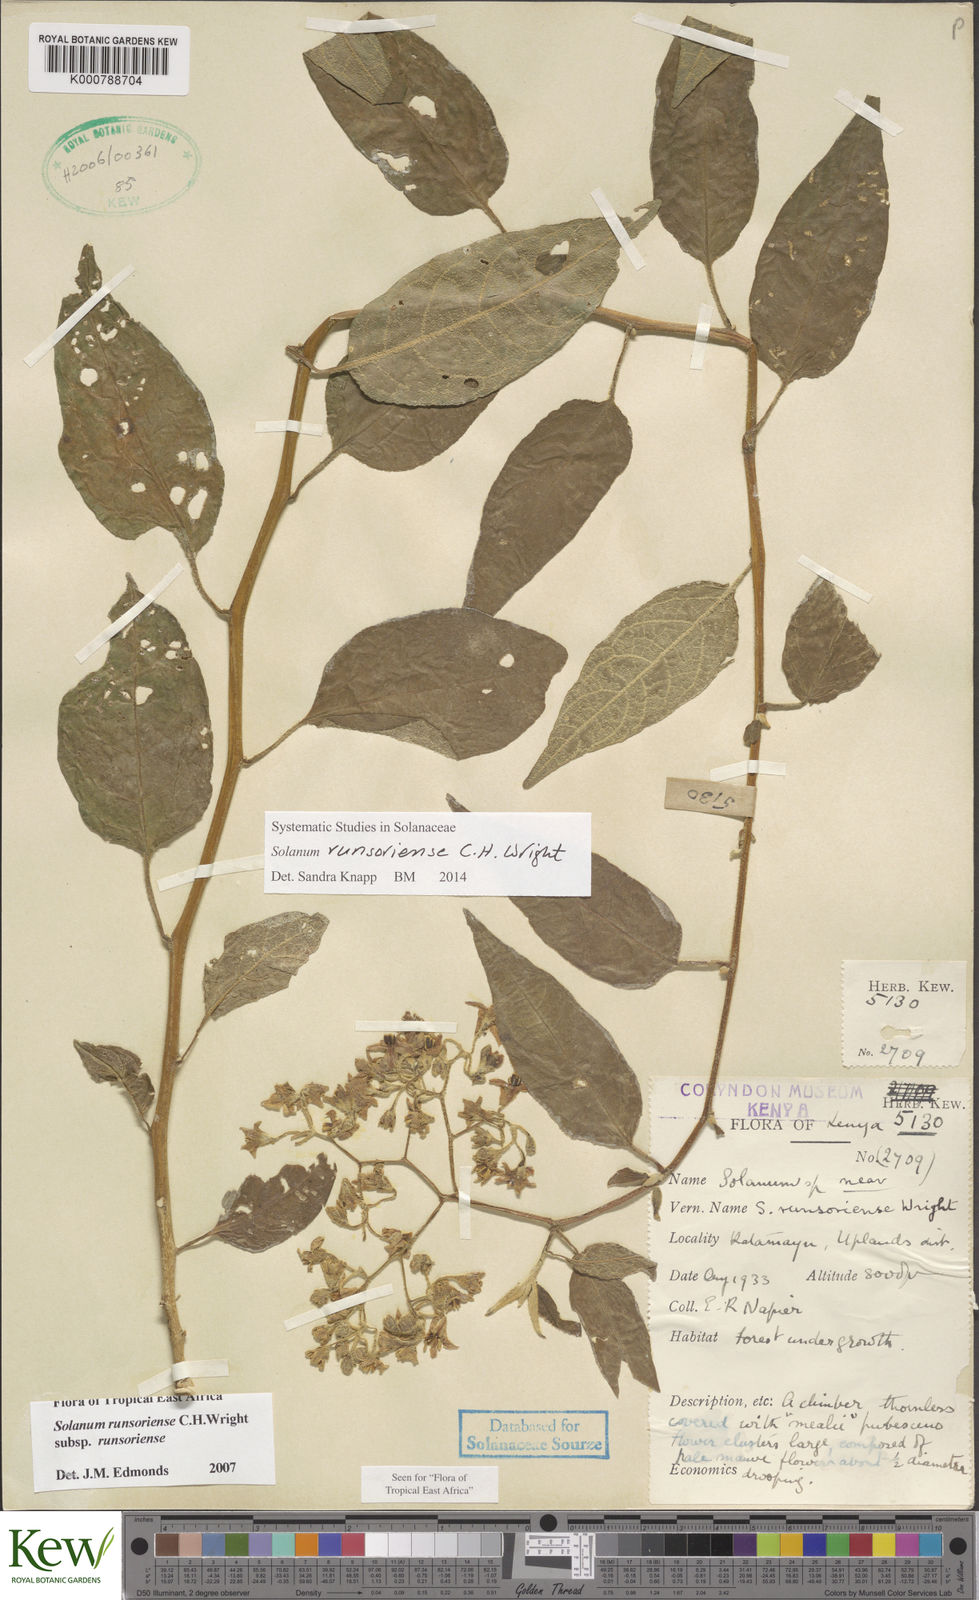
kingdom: Plantae
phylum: Tracheophyta
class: Magnoliopsida
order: Solanales
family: Solanaceae
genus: Solanum
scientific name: Solanum runsoriense
